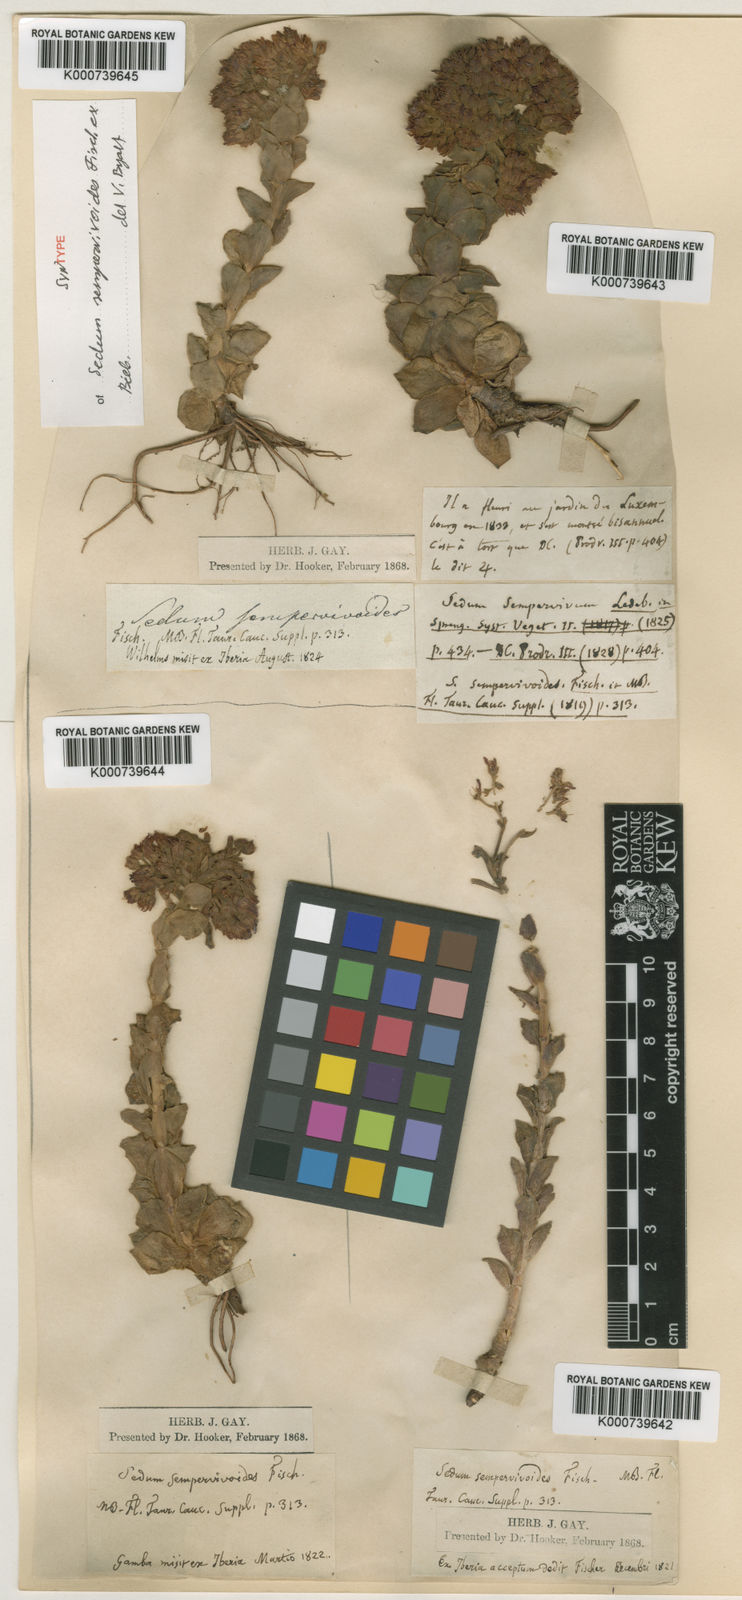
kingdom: Plantae
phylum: Tracheophyta
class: Magnoliopsida
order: Saxifragales
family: Crassulaceae
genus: Prometheum
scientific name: Prometheum sempervivoides
